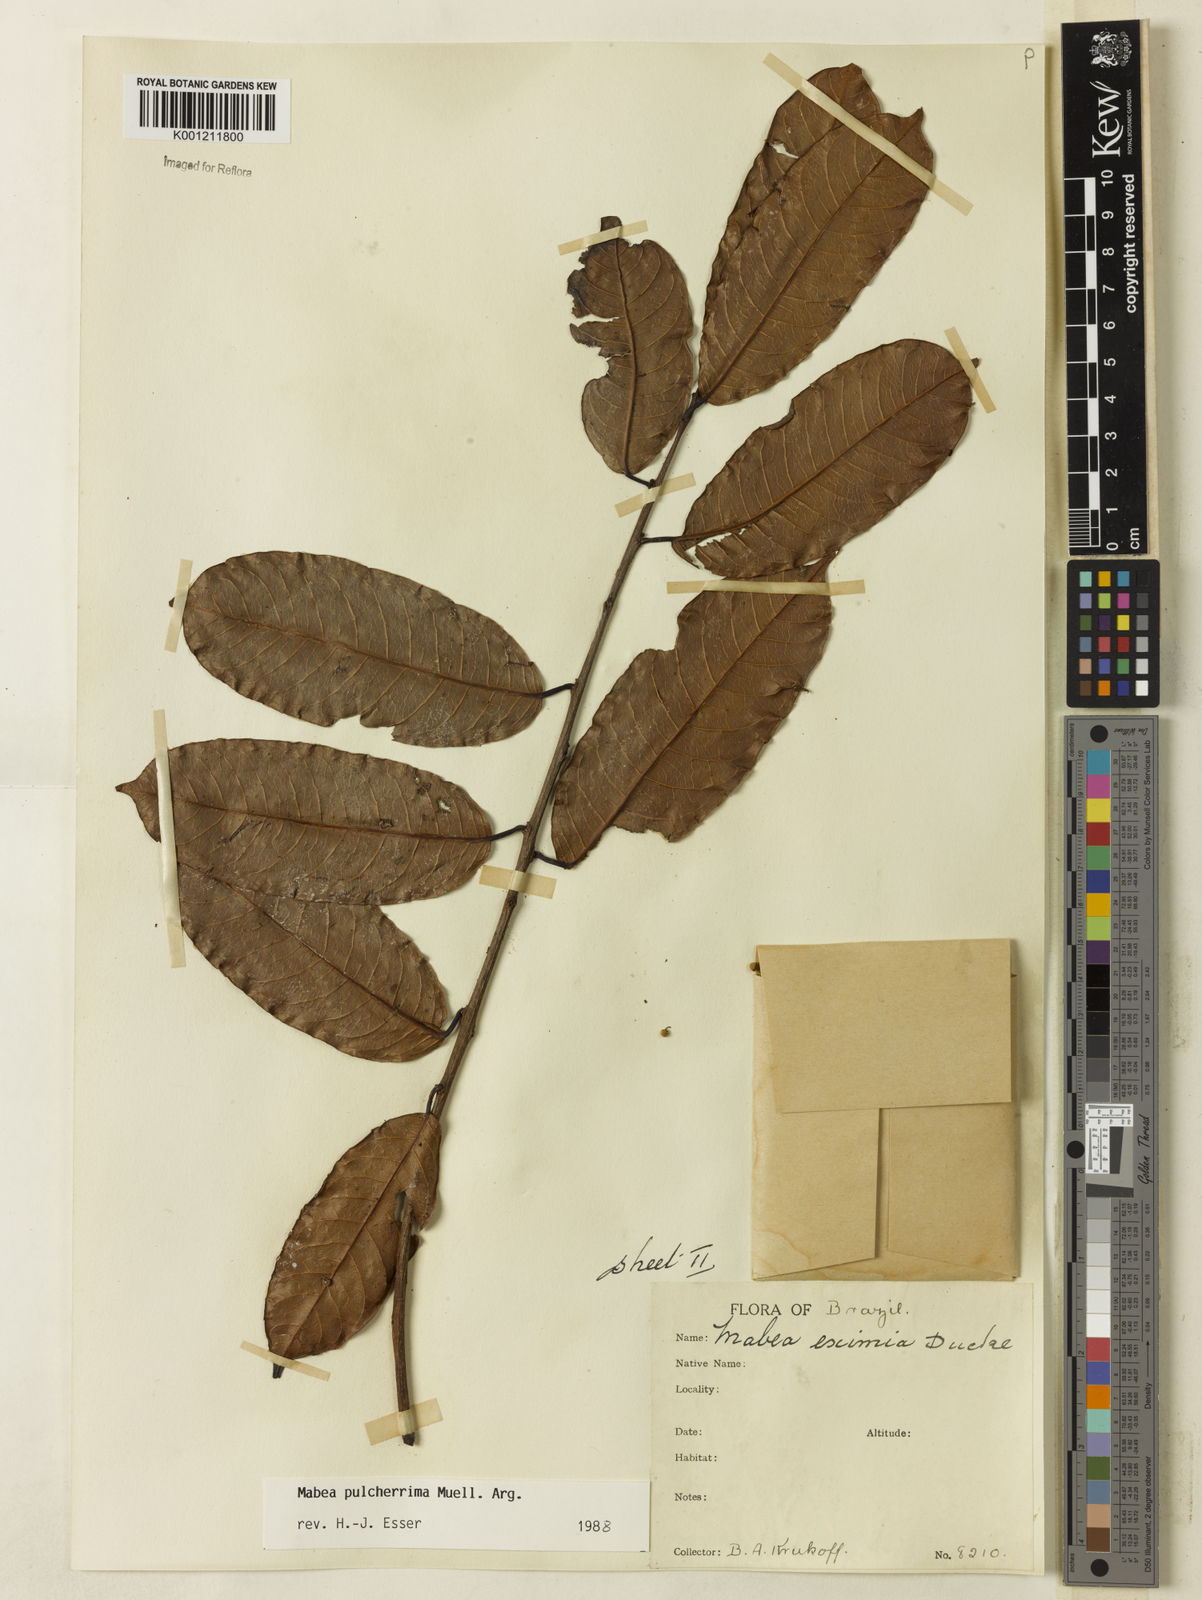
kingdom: Plantae
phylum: Tracheophyta
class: Magnoliopsida
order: Malpighiales
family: Euphorbiaceae
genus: Mabea
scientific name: Mabea
